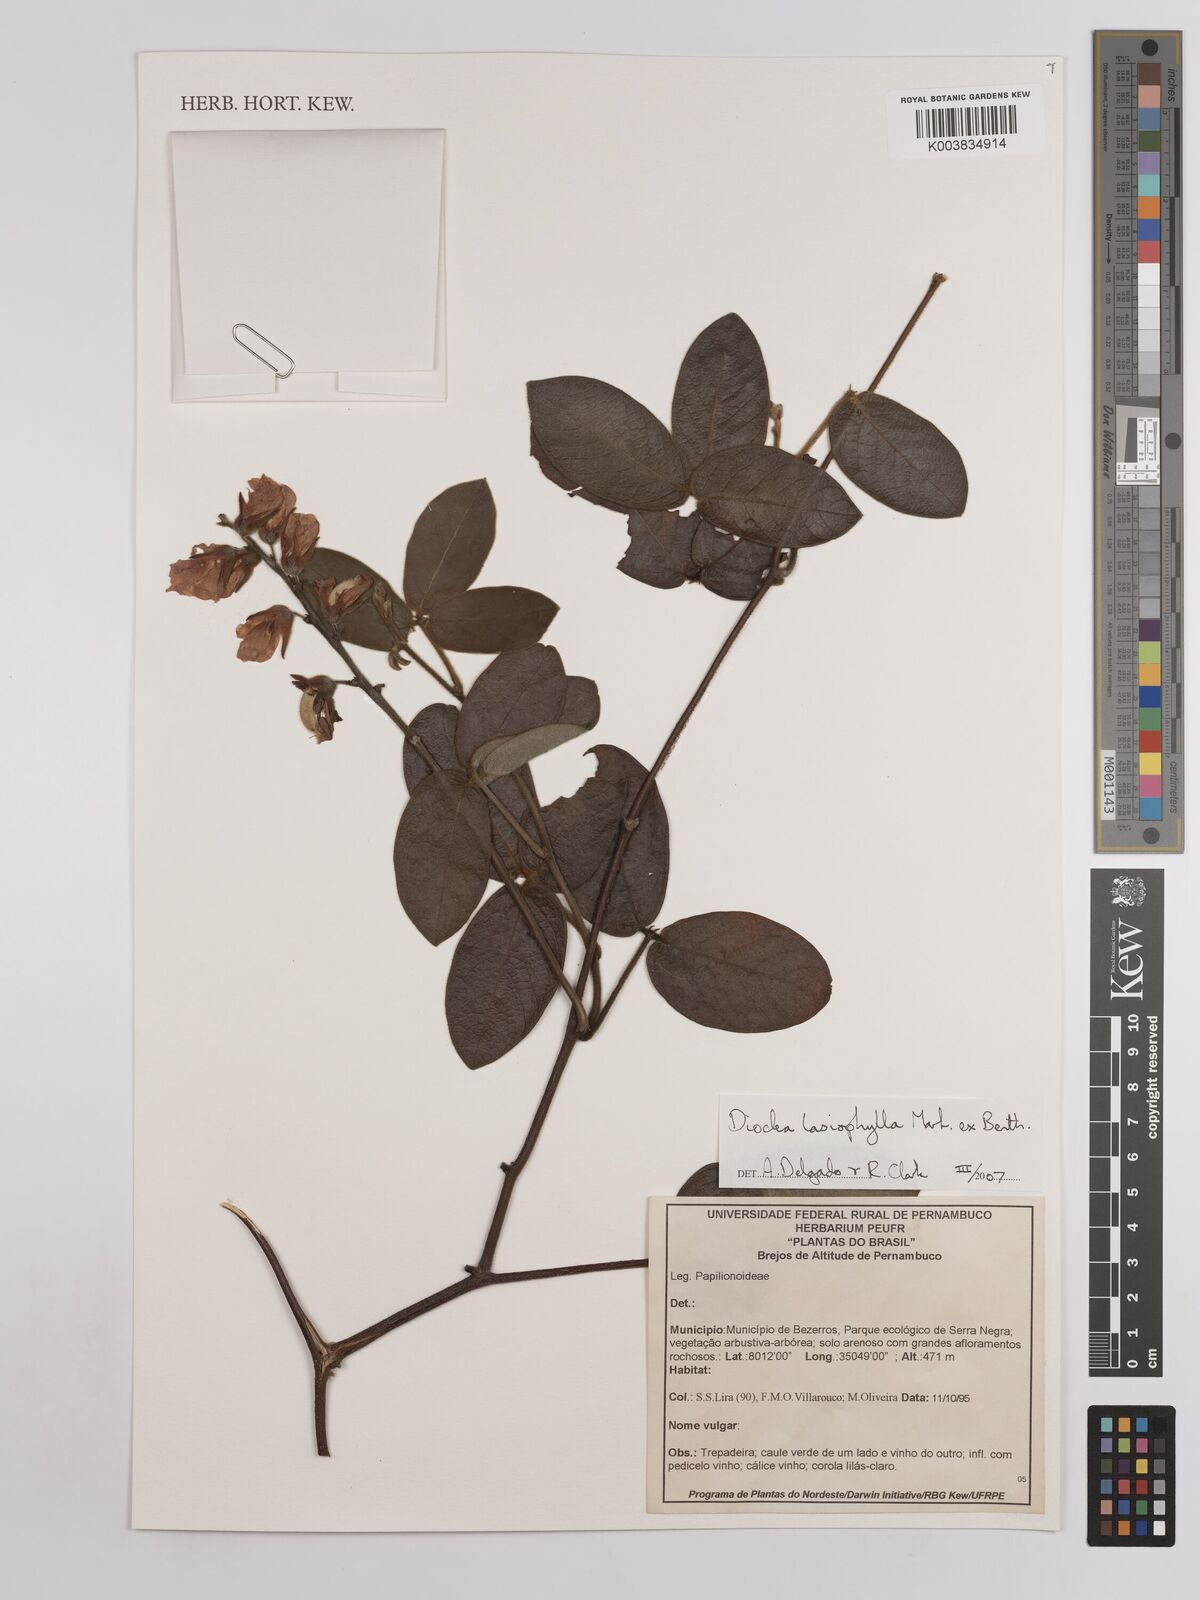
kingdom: Plantae
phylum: Tracheophyta
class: Magnoliopsida
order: Fabales
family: Fabaceae
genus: Dioclea
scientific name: Dioclea lasiophylla
